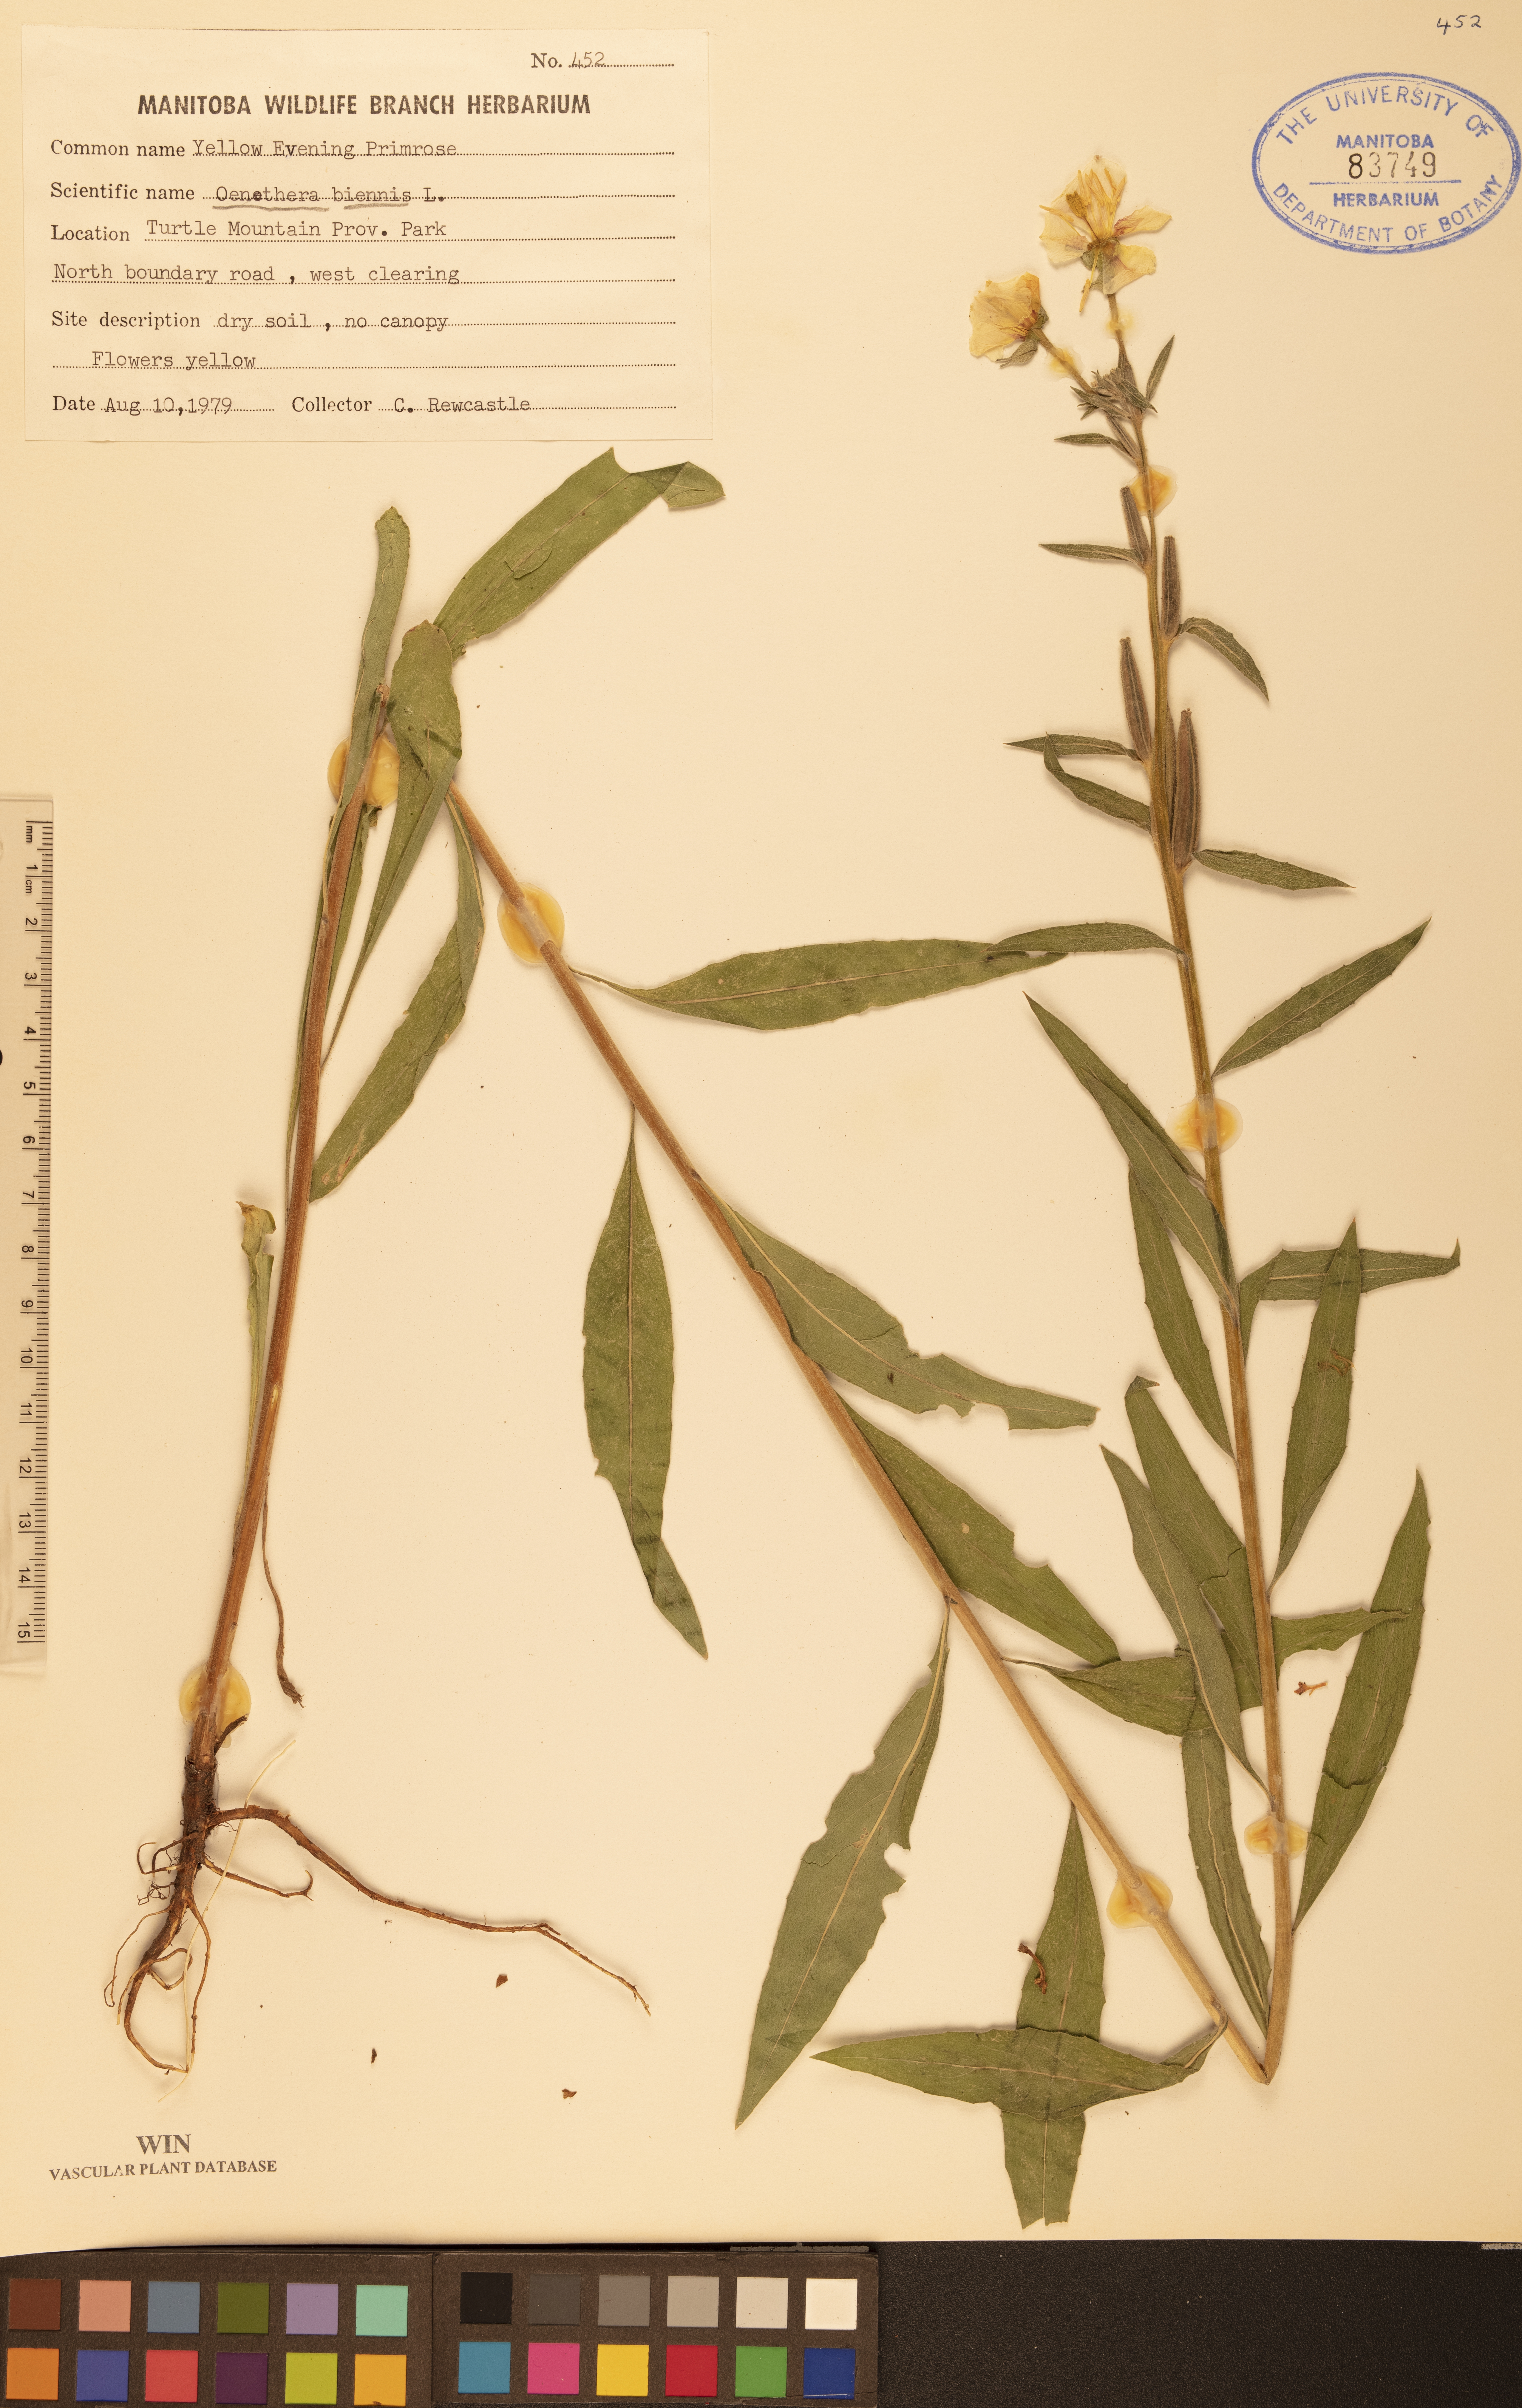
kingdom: Plantae
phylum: Tracheophyta
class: Magnoliopsida
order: Myrtales
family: Onagraceae
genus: Oenothera
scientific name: Oenothera biennis
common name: Common evening-primrose
